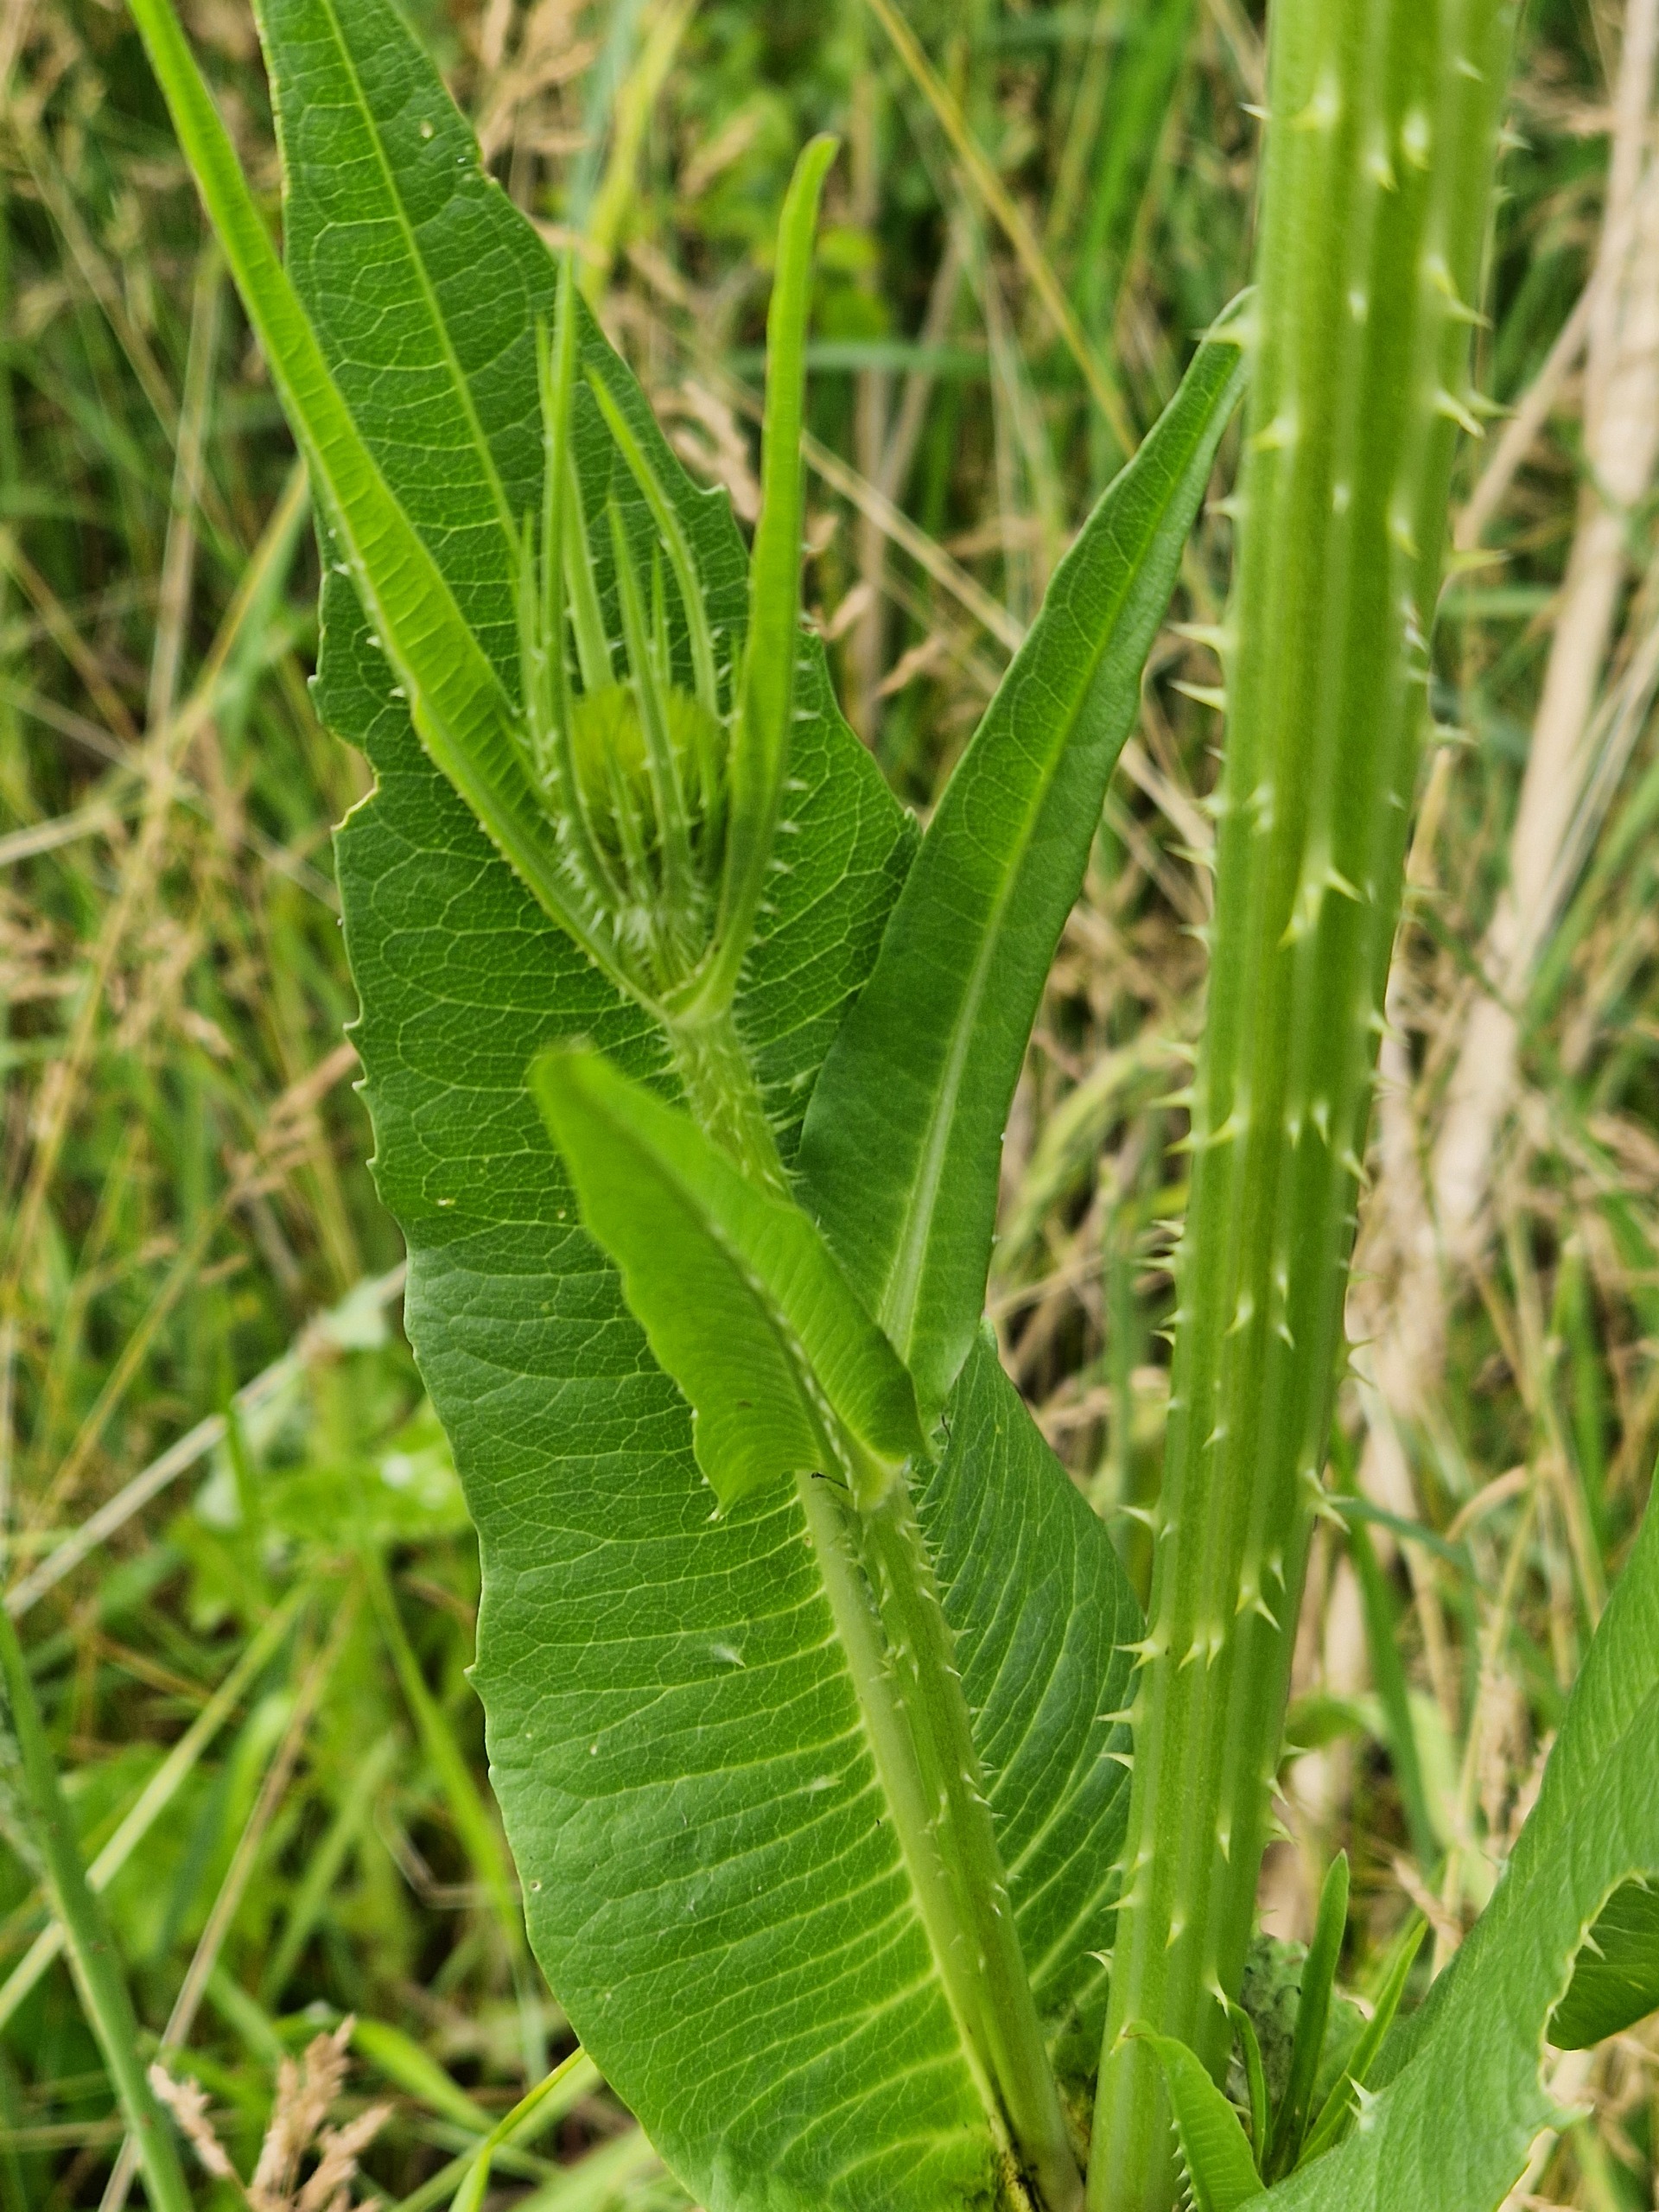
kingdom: Plantae
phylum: Tracheophyta
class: Magnoliopsida
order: Dipsacales
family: Caprifoliaceae
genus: Dipsacus
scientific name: Dipsacus fullonum
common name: Gærde-kartebolle
